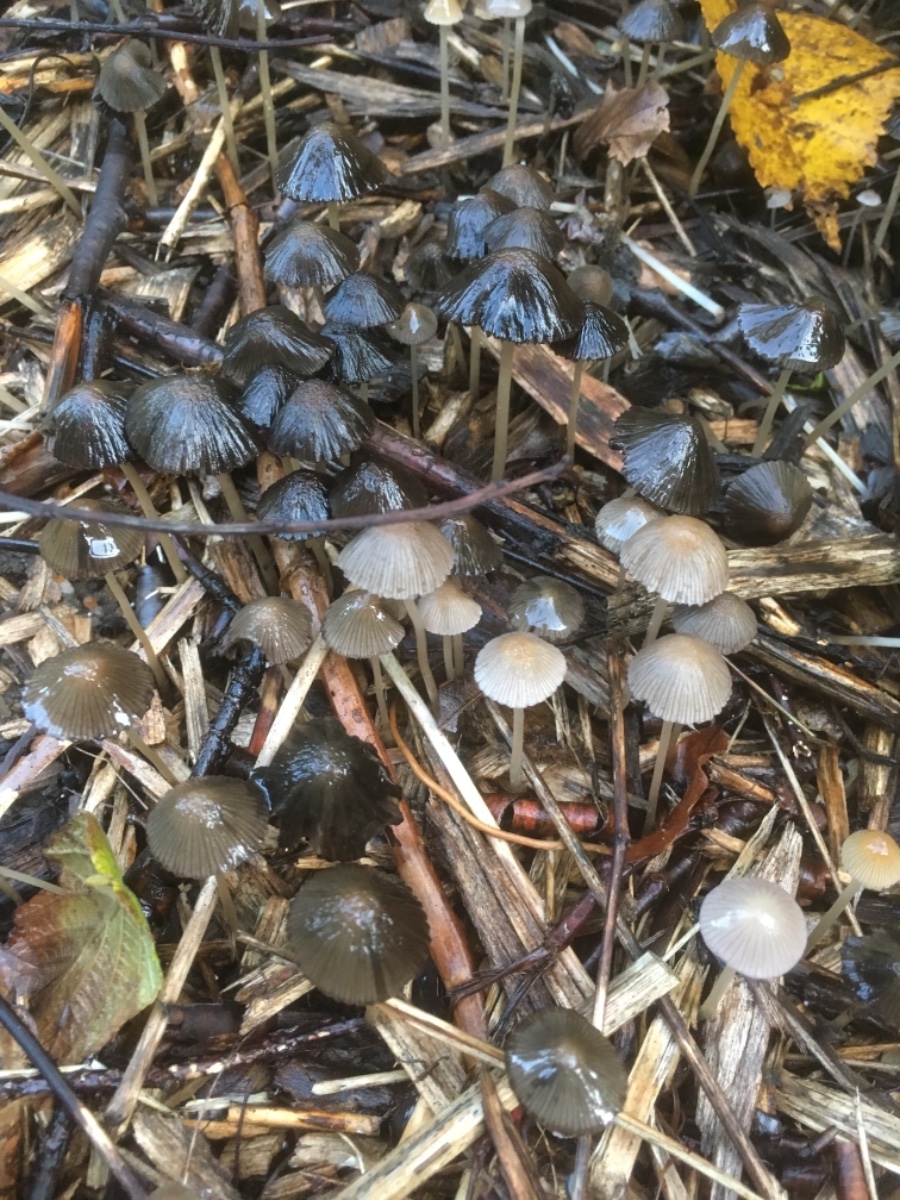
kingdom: Fungi
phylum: Basidiomycota
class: Agaricomycetes
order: Agaricales
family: Psathyrellaceae
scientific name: Psathyrellaceae
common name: mørkhatfamilien
